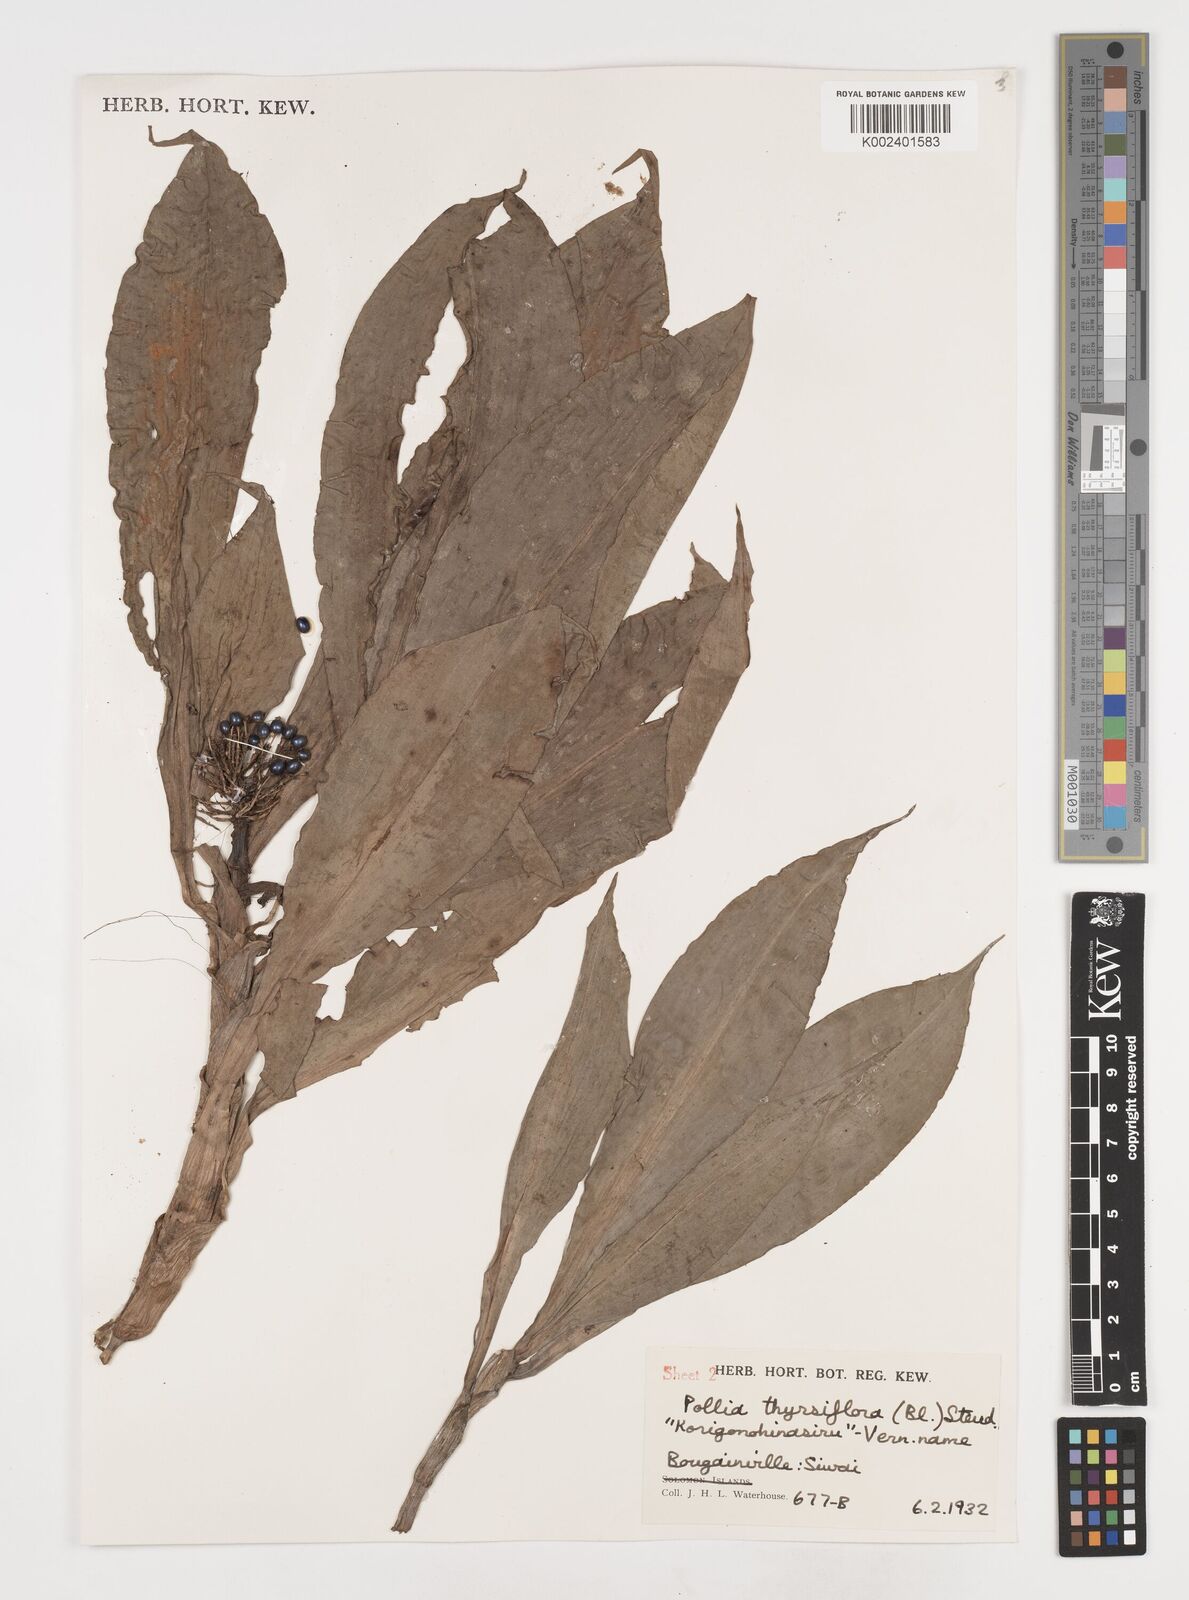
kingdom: Plantae
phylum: Tracheophyta
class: Liliopsida
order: Commelinales
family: Commelinaceae
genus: Pollia
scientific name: Pollia thyrsiflora
